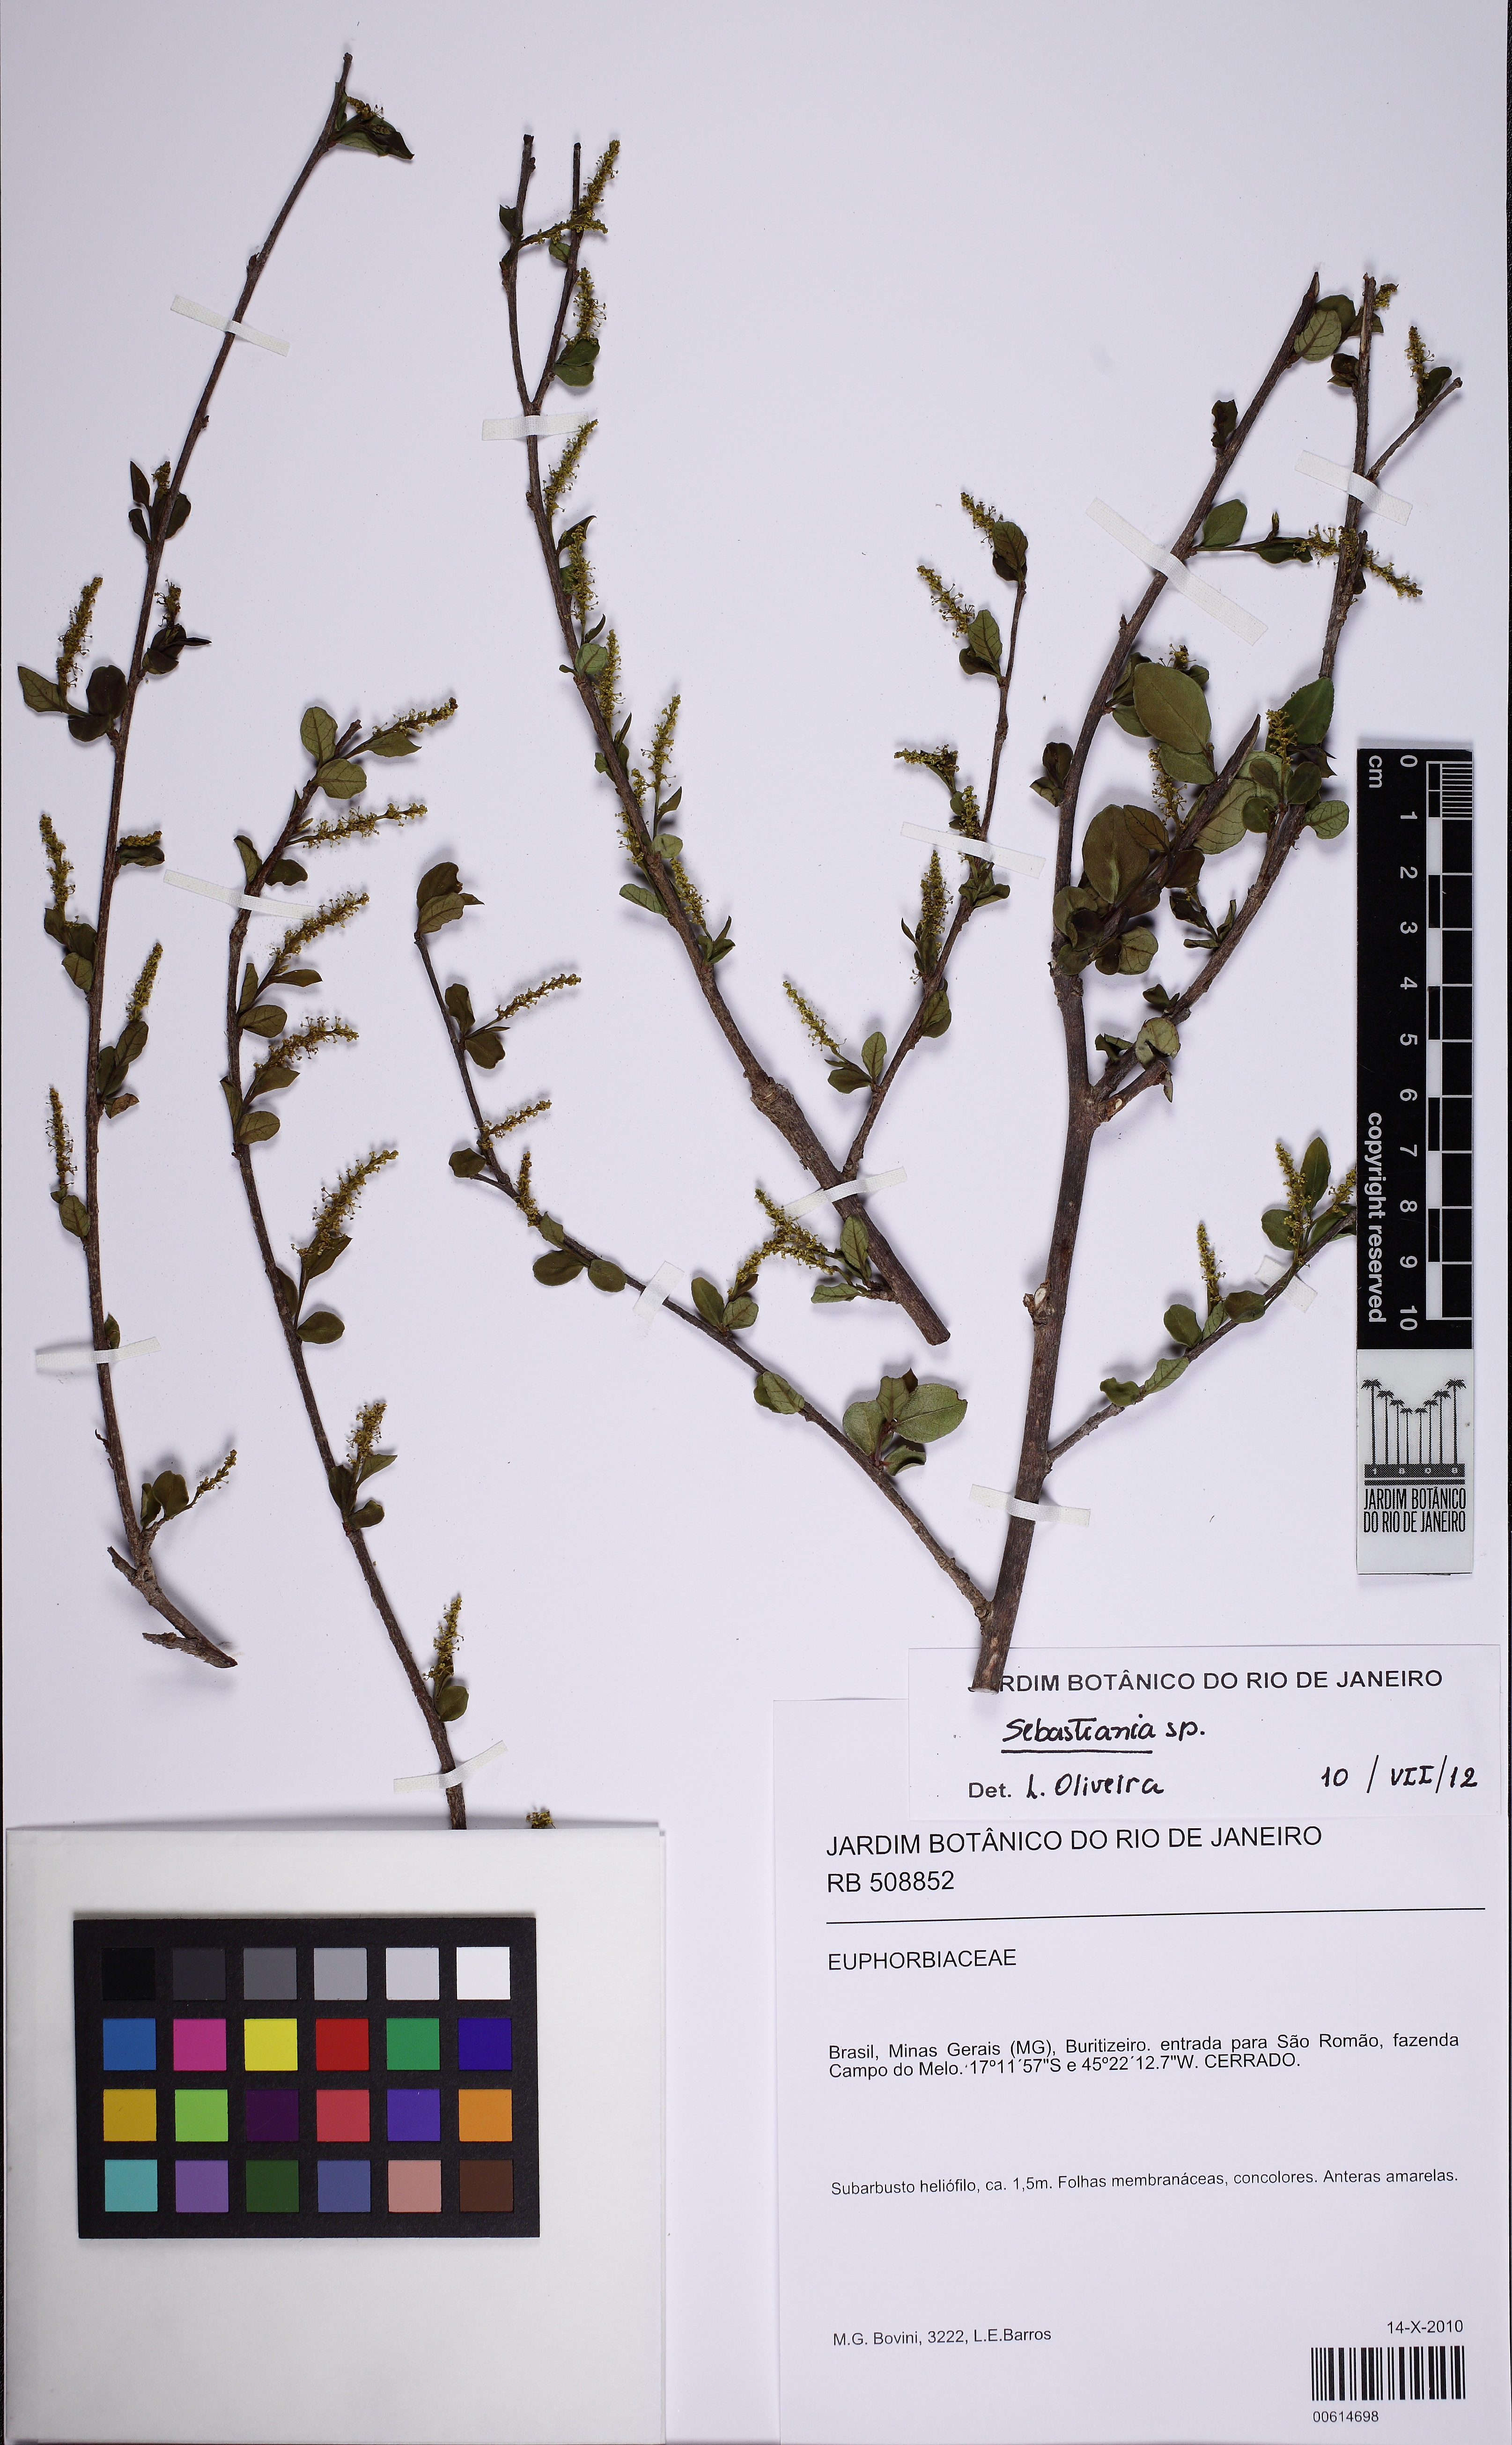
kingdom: Plantae
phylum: Tracheophyta
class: Magnoliopsida
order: Malpighiales
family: Euphorbiaceae
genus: Sebastiania
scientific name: Sebastiania
